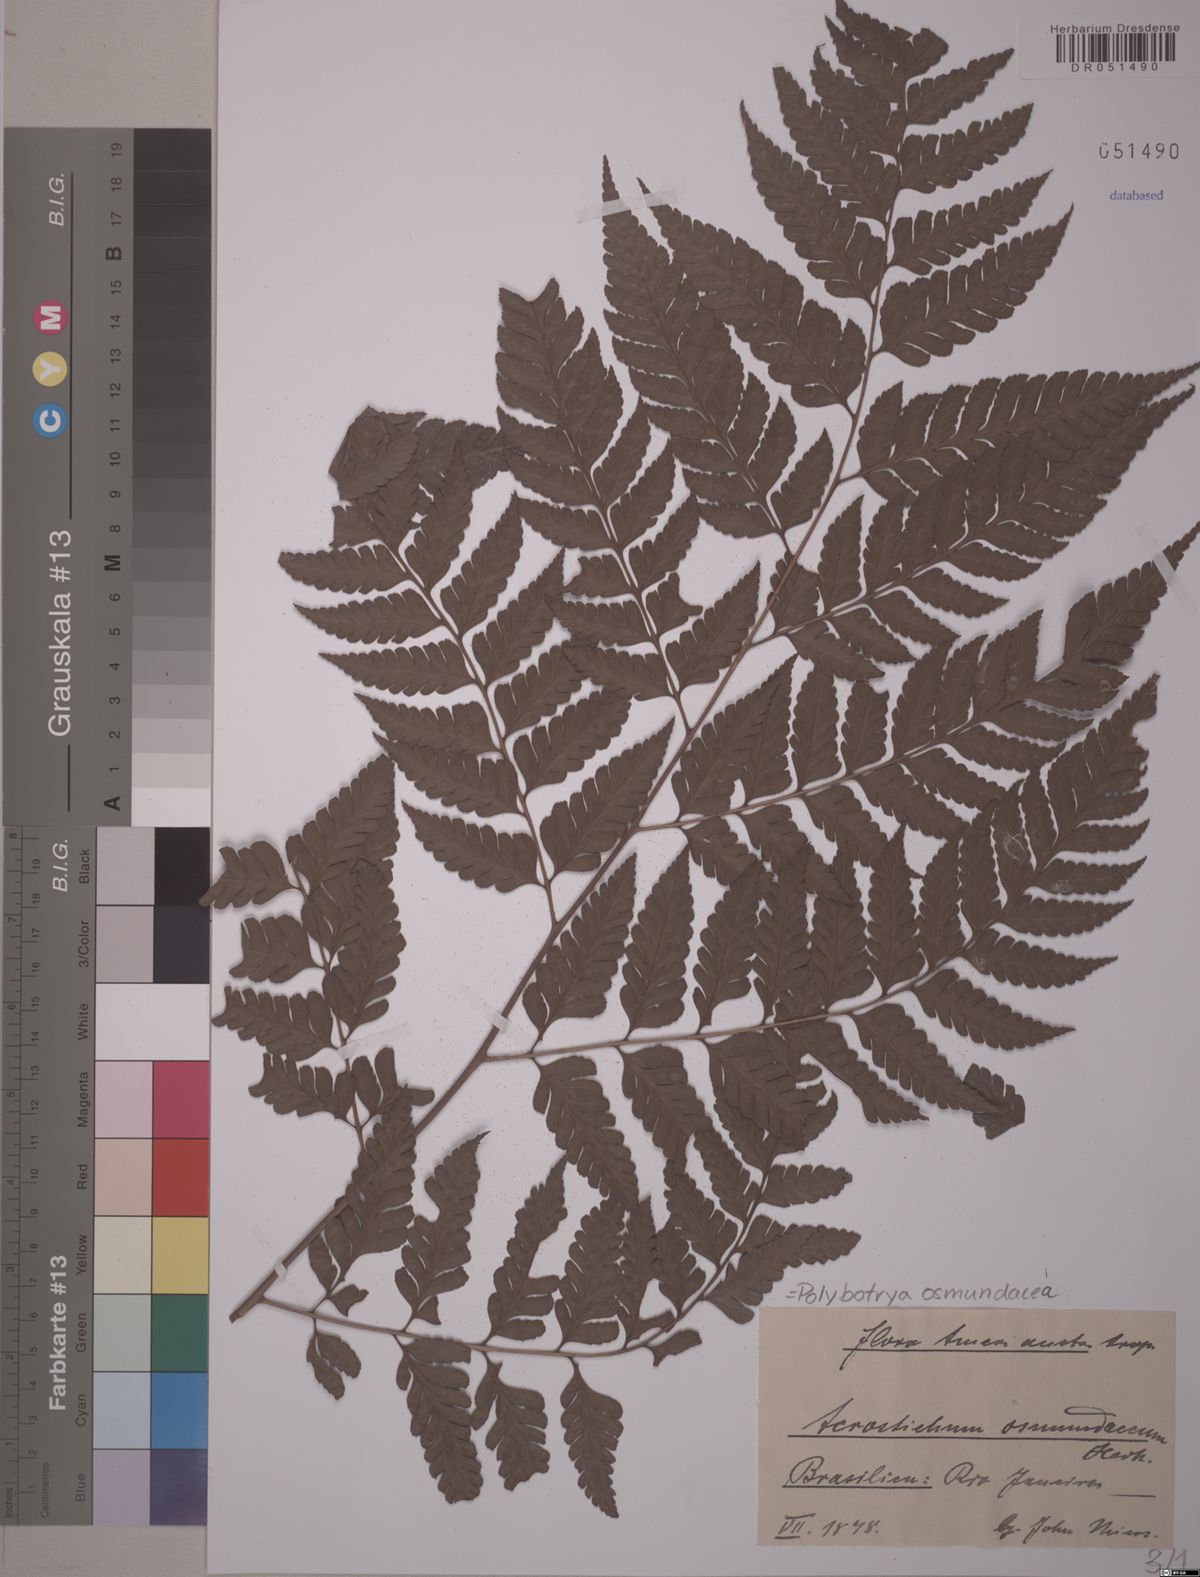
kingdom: Plantae
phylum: Tracheophyta
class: Polypodiopsida
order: Polypodiales
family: Dryopteridaceae
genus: Polybotrya
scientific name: Polybotrya osmundacea
